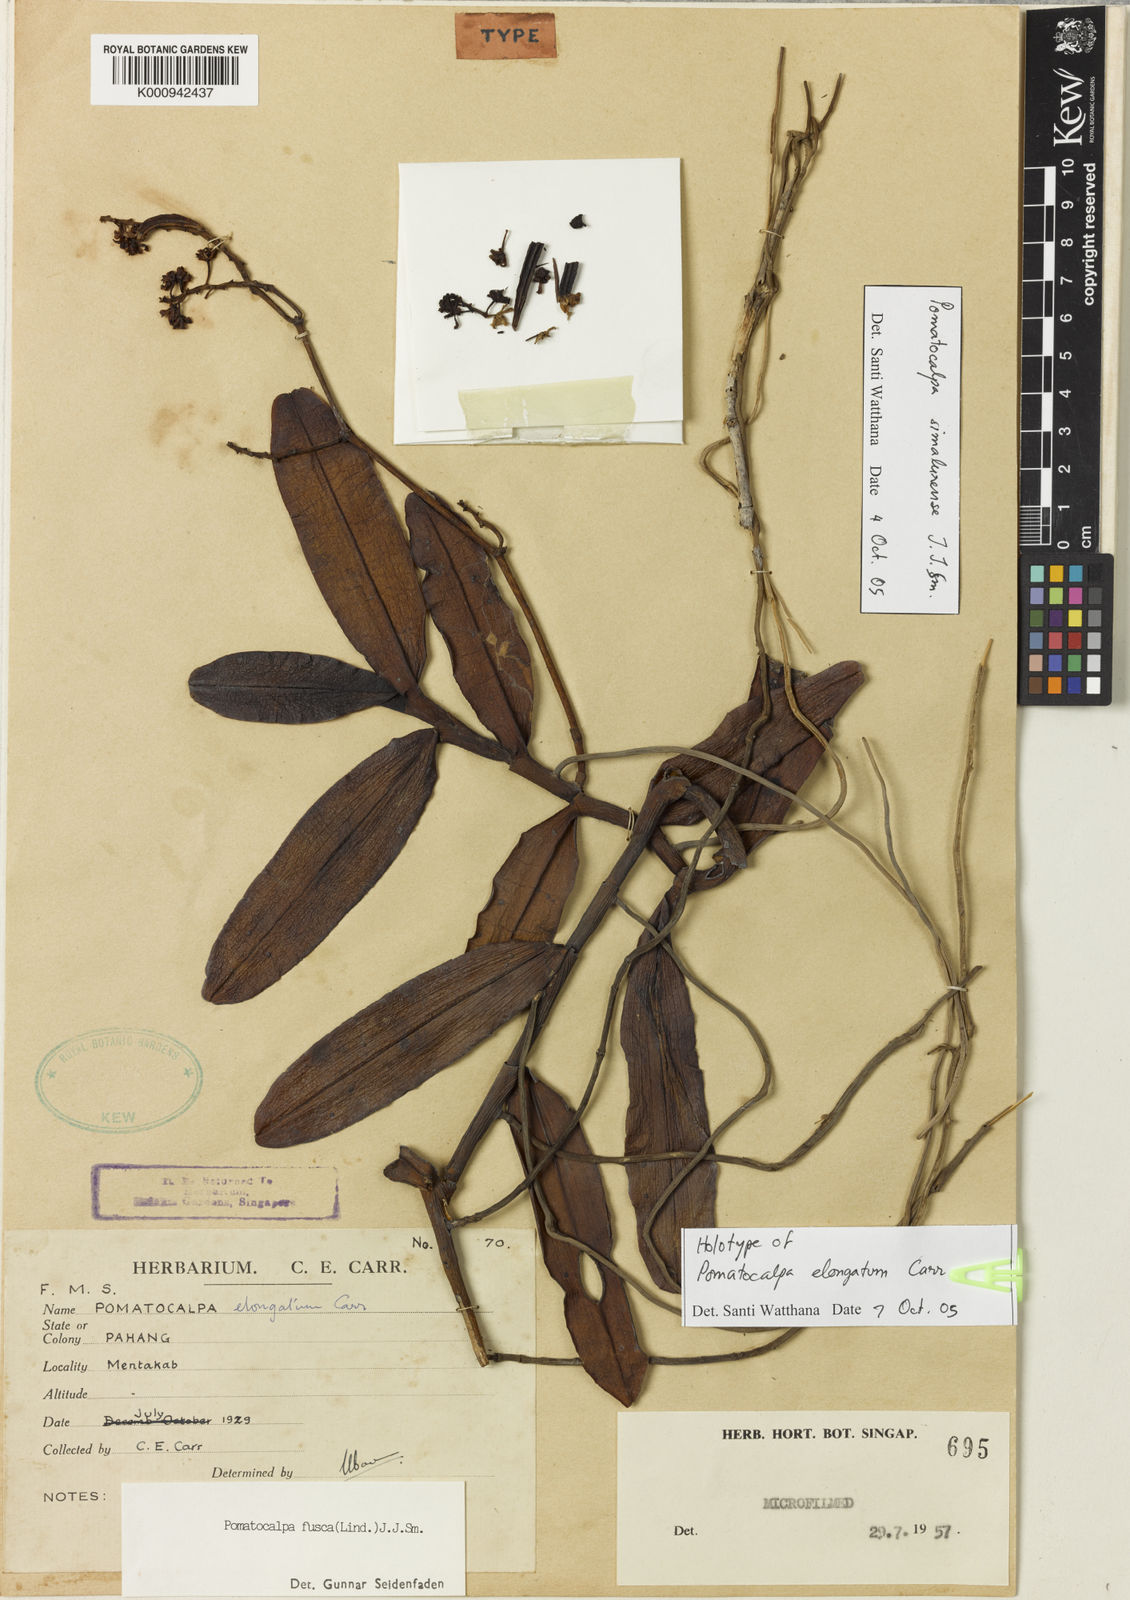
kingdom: Plantae
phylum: Tracheophyta
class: Liliopsida
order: Asparagales
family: Orchidaceae
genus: Pomatocalpa
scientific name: Pomatocalpa simalurense
